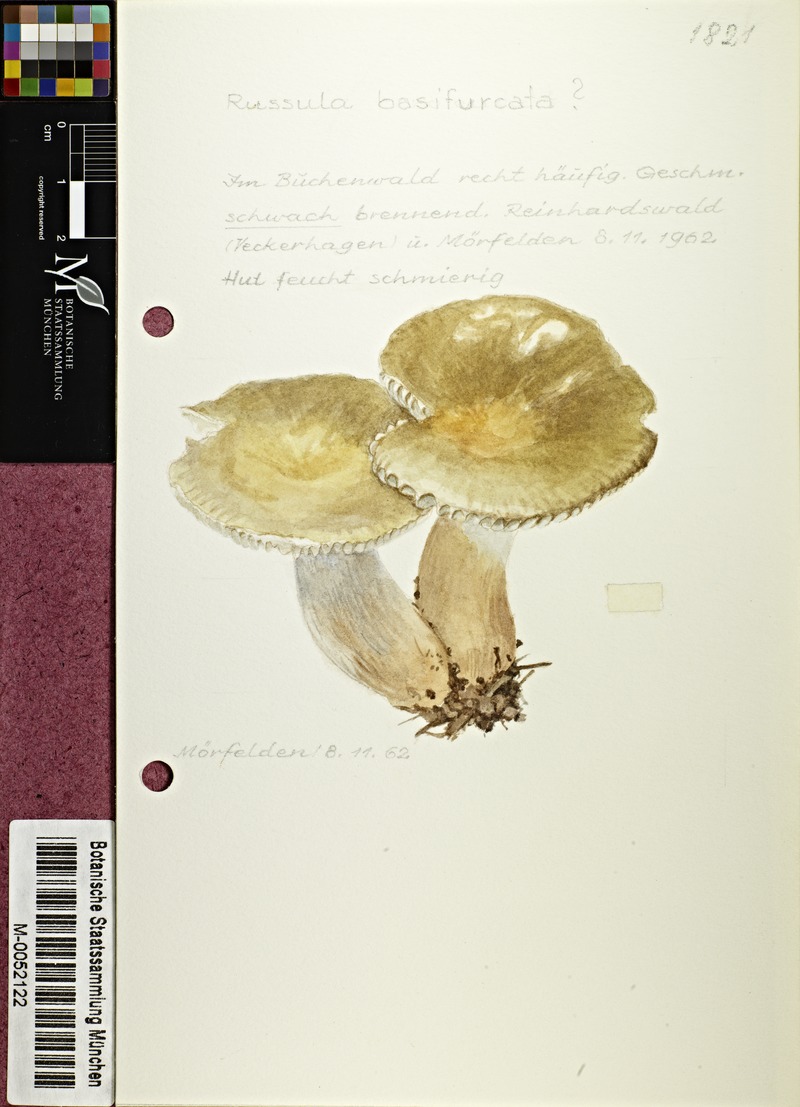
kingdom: Fungi
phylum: Basidiomycota
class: Agaricomycetes
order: Russulales
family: Russulaceae
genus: Russula
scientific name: Russula basifurcata
